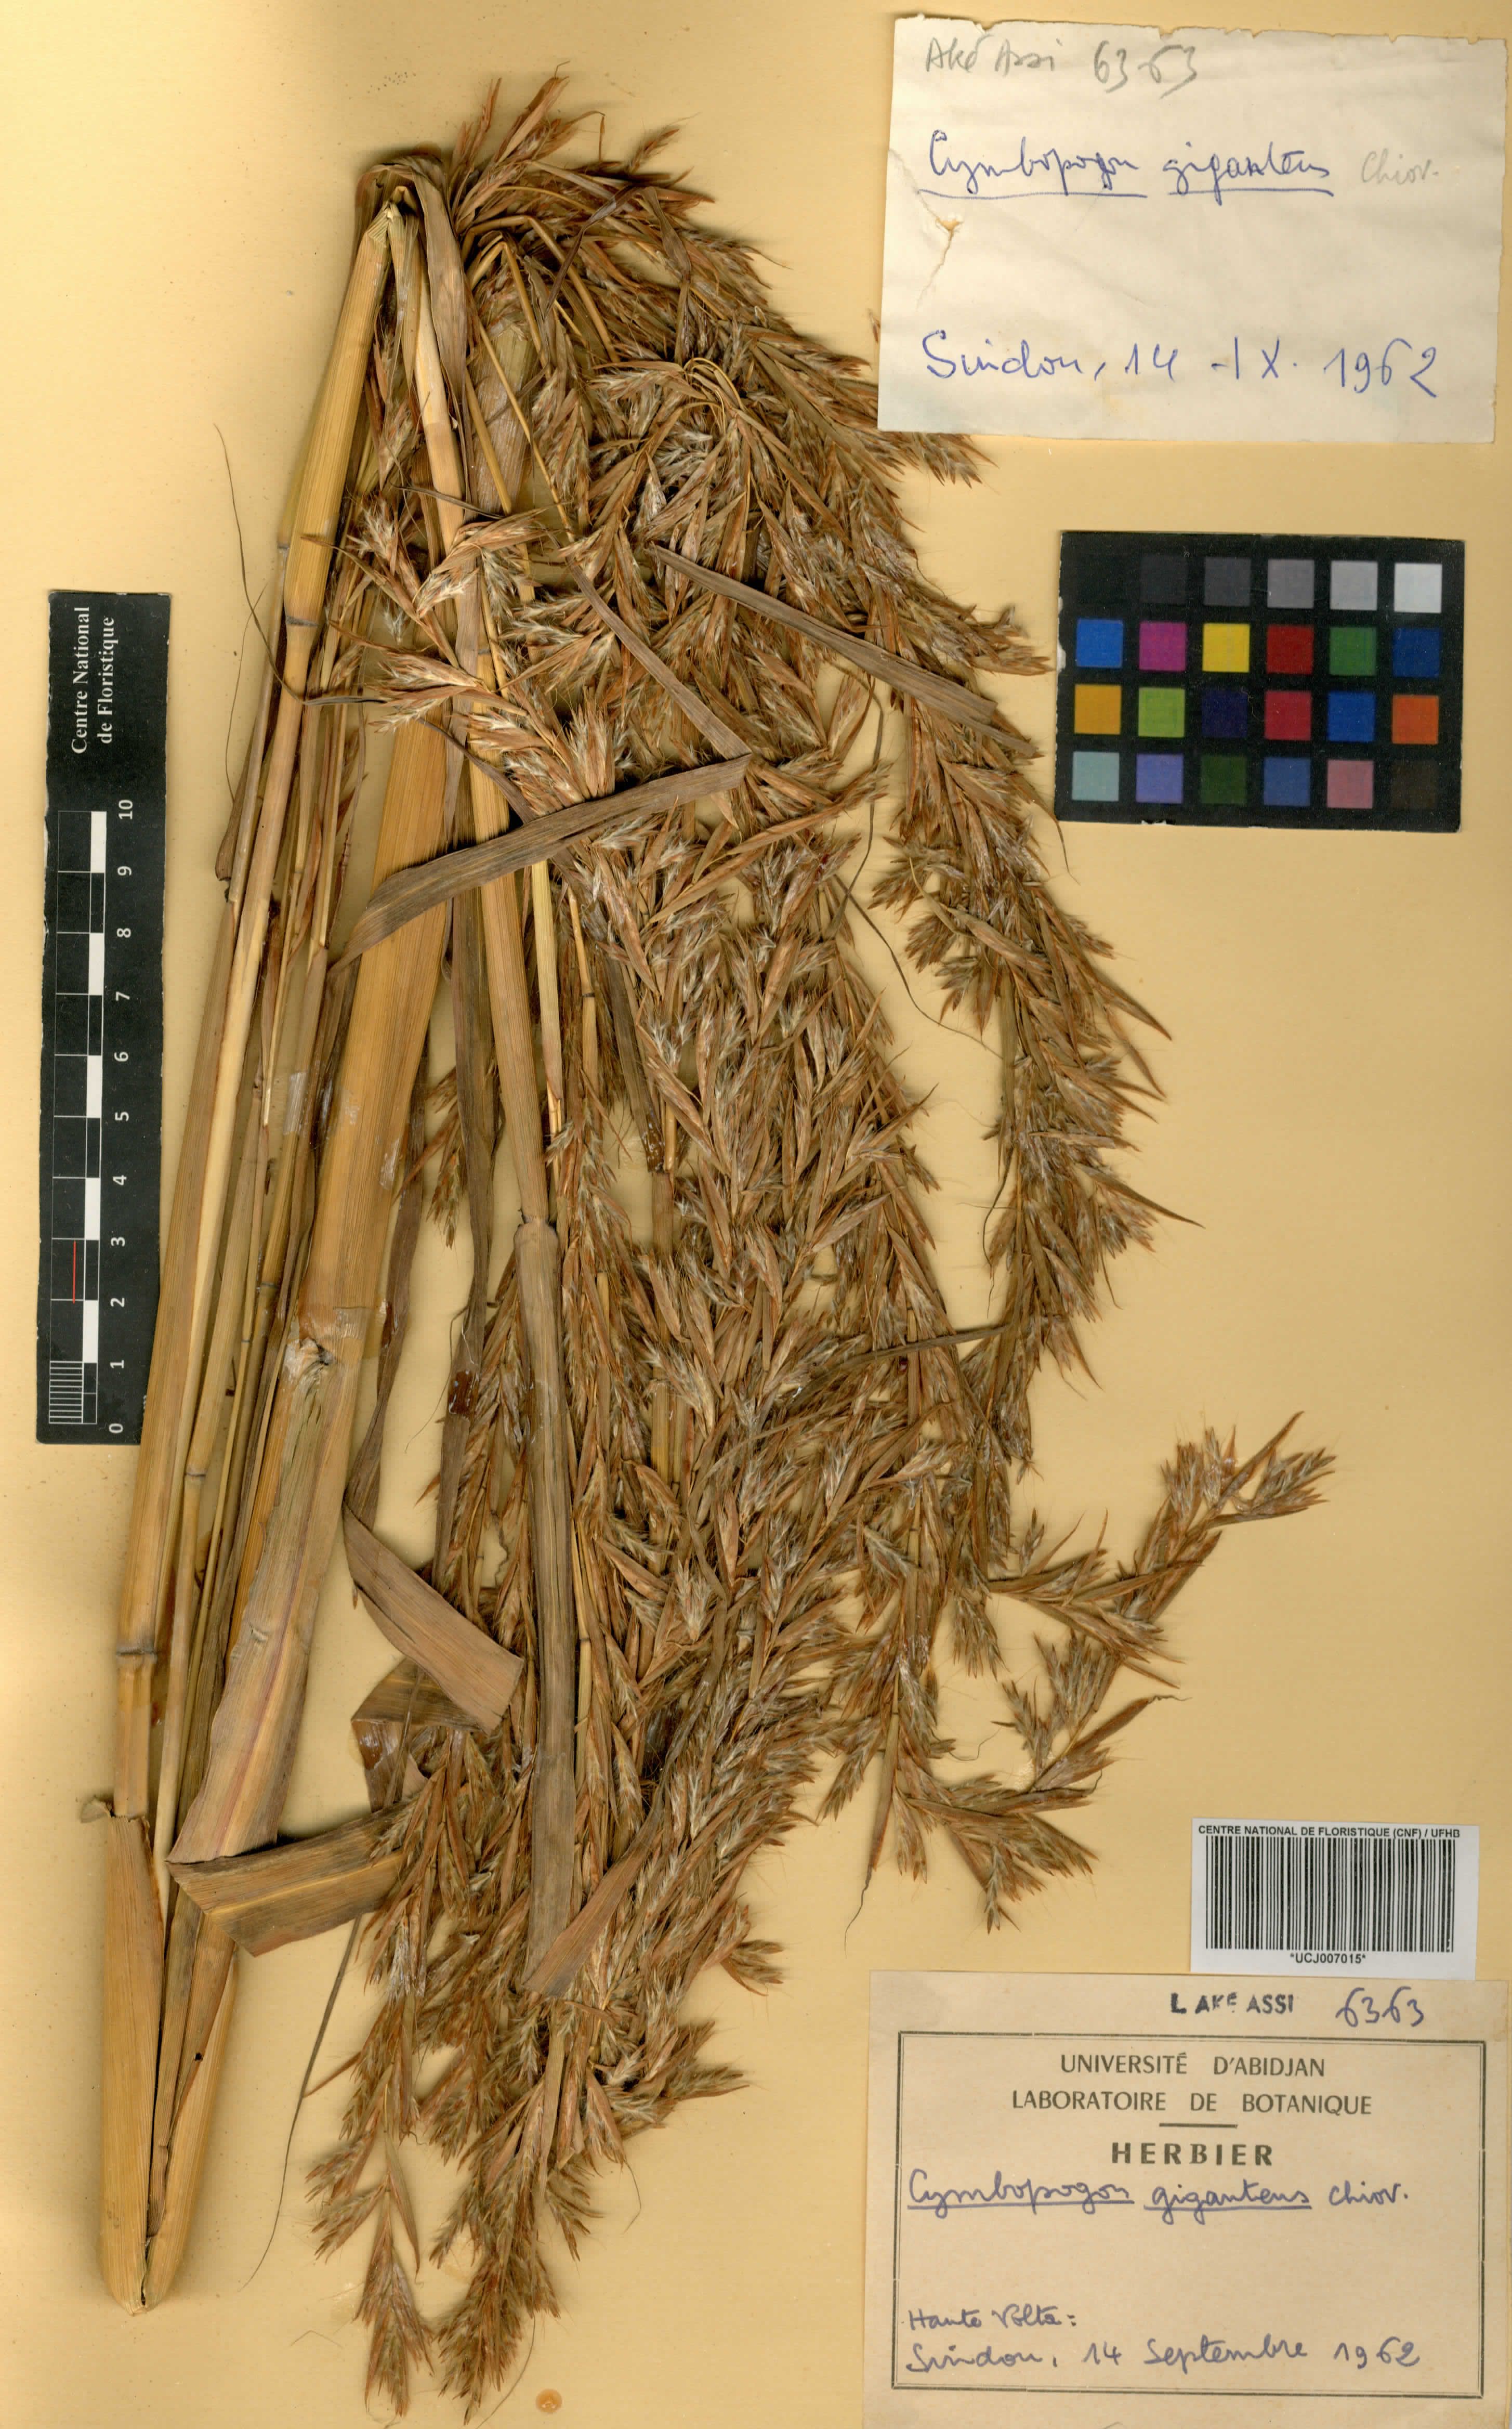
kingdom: Plantae
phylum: Tracheophyta
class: Liliopsida
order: Poales
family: Poaceae
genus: Cymbopogon
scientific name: Cymbopogon giganteus
